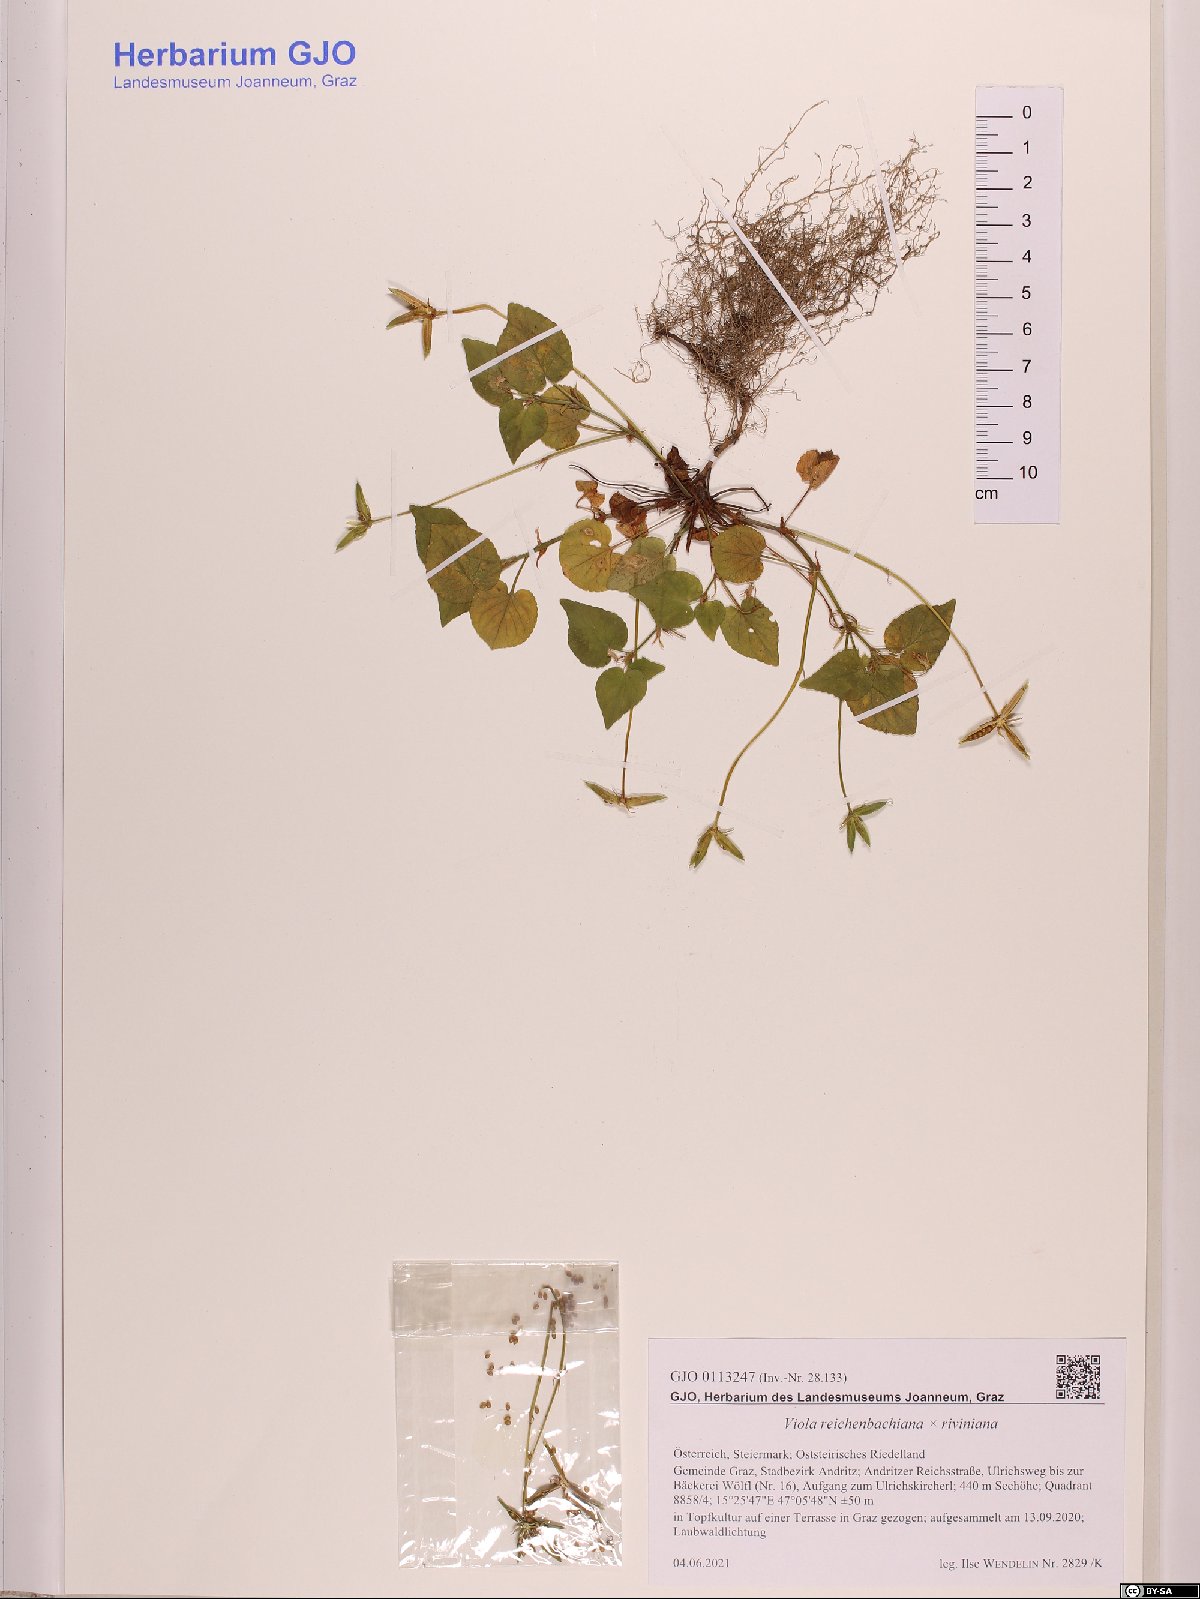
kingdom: Plantae
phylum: Tracheophyta
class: Magnoliopsida
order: Malpighiales
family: Violaceae
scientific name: Violaceae
